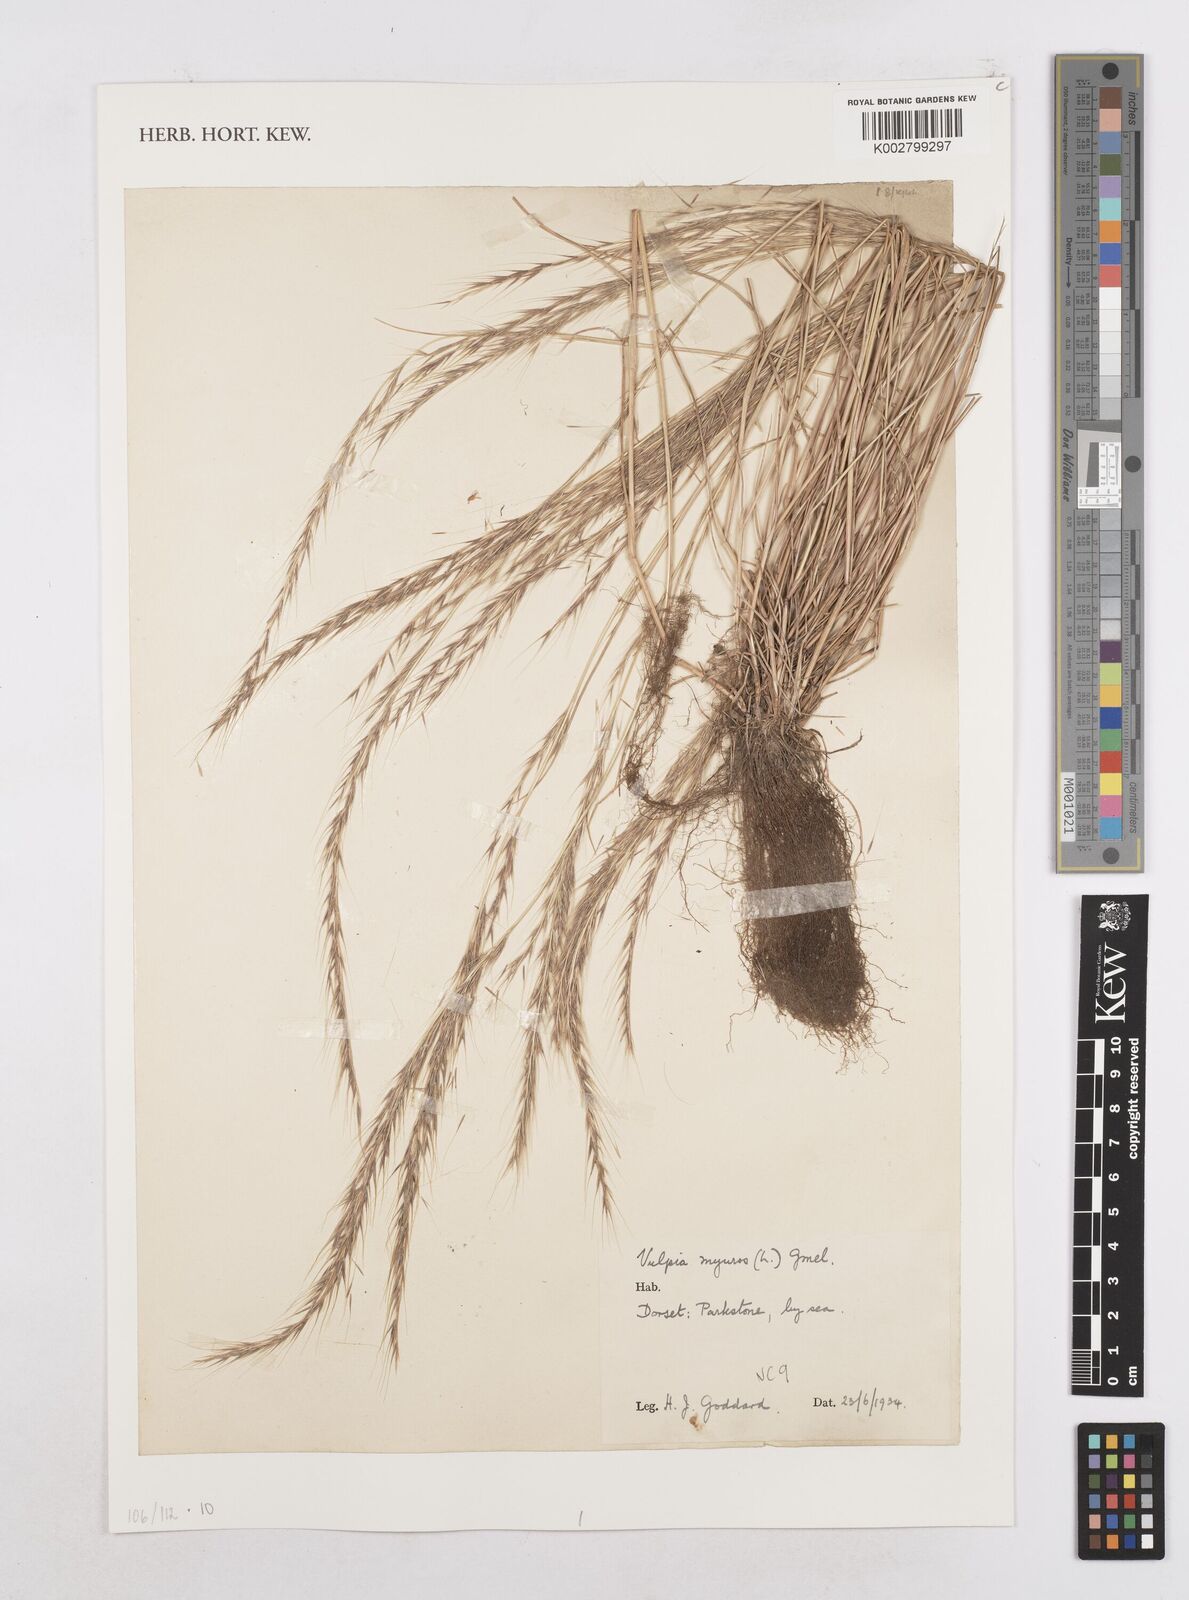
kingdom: Plantae
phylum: Tracheophyta
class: Liliopsida
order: Poales
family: Poaceae
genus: Festuca
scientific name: Festuca myuros
